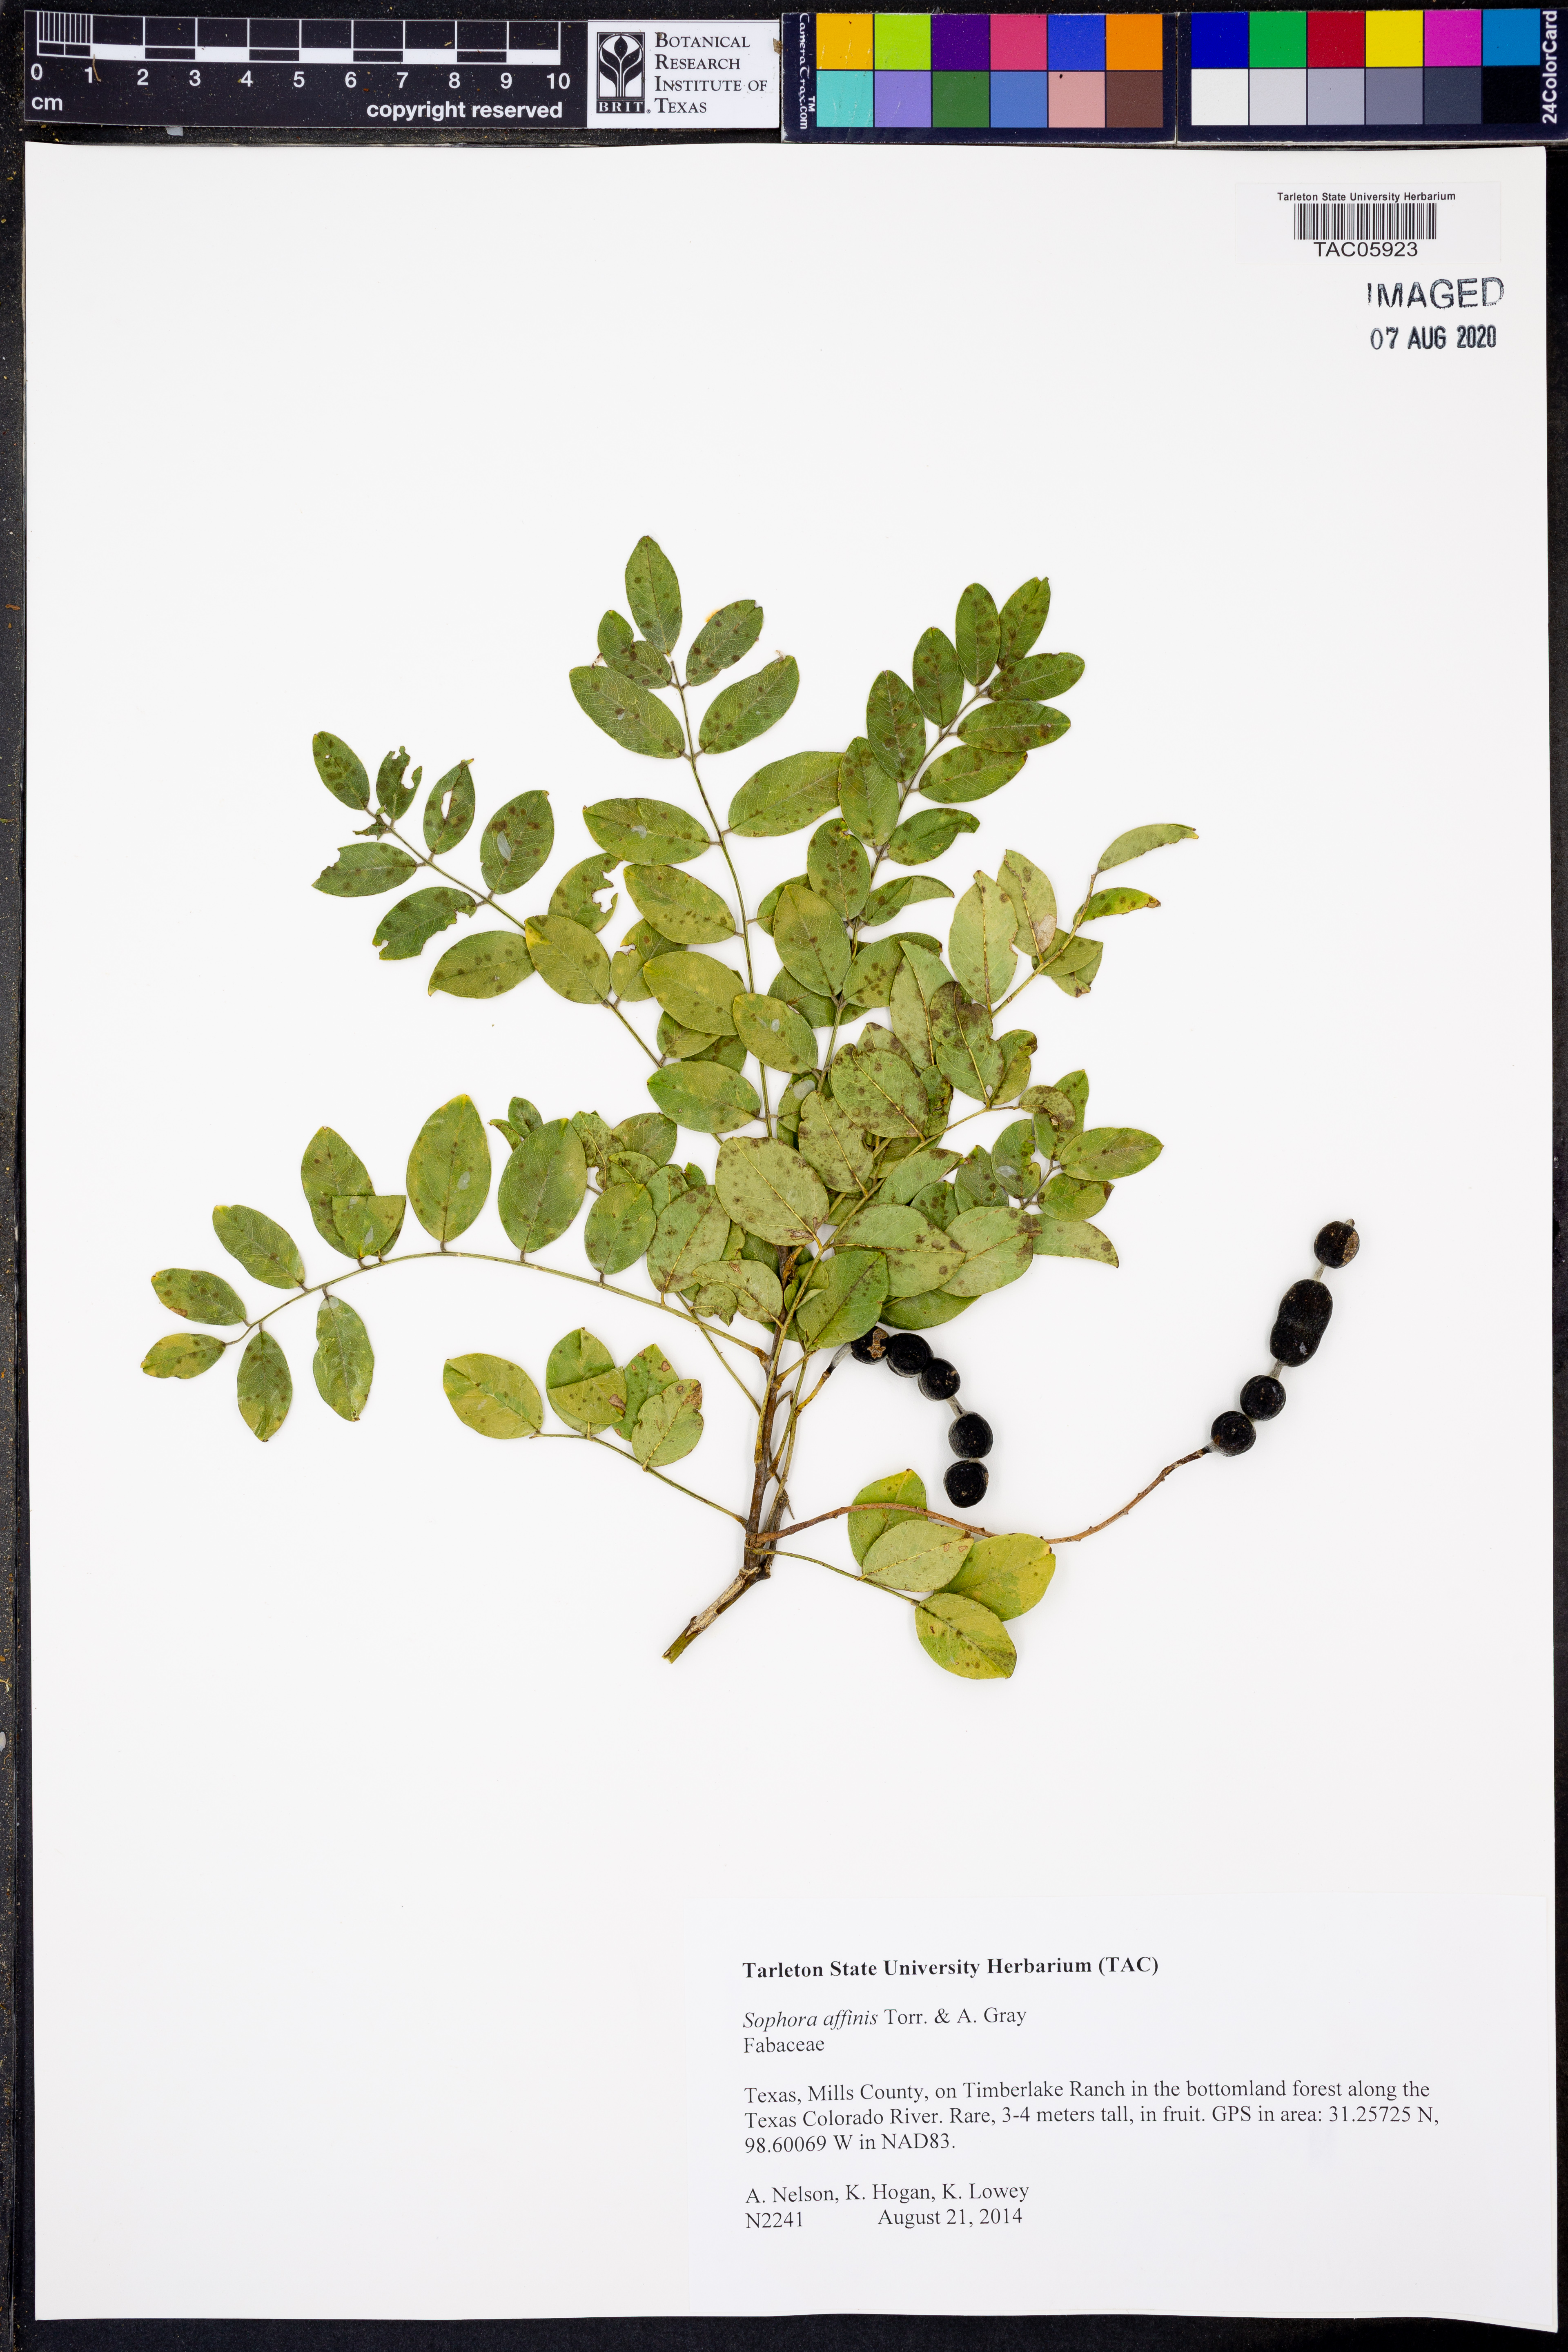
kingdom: Plantae
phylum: Tracheophyta
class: Magnoliopsida
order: Fabales
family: Fabaceae
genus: Styphnolobium
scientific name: Styphnolobium affine
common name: Texas sophora
